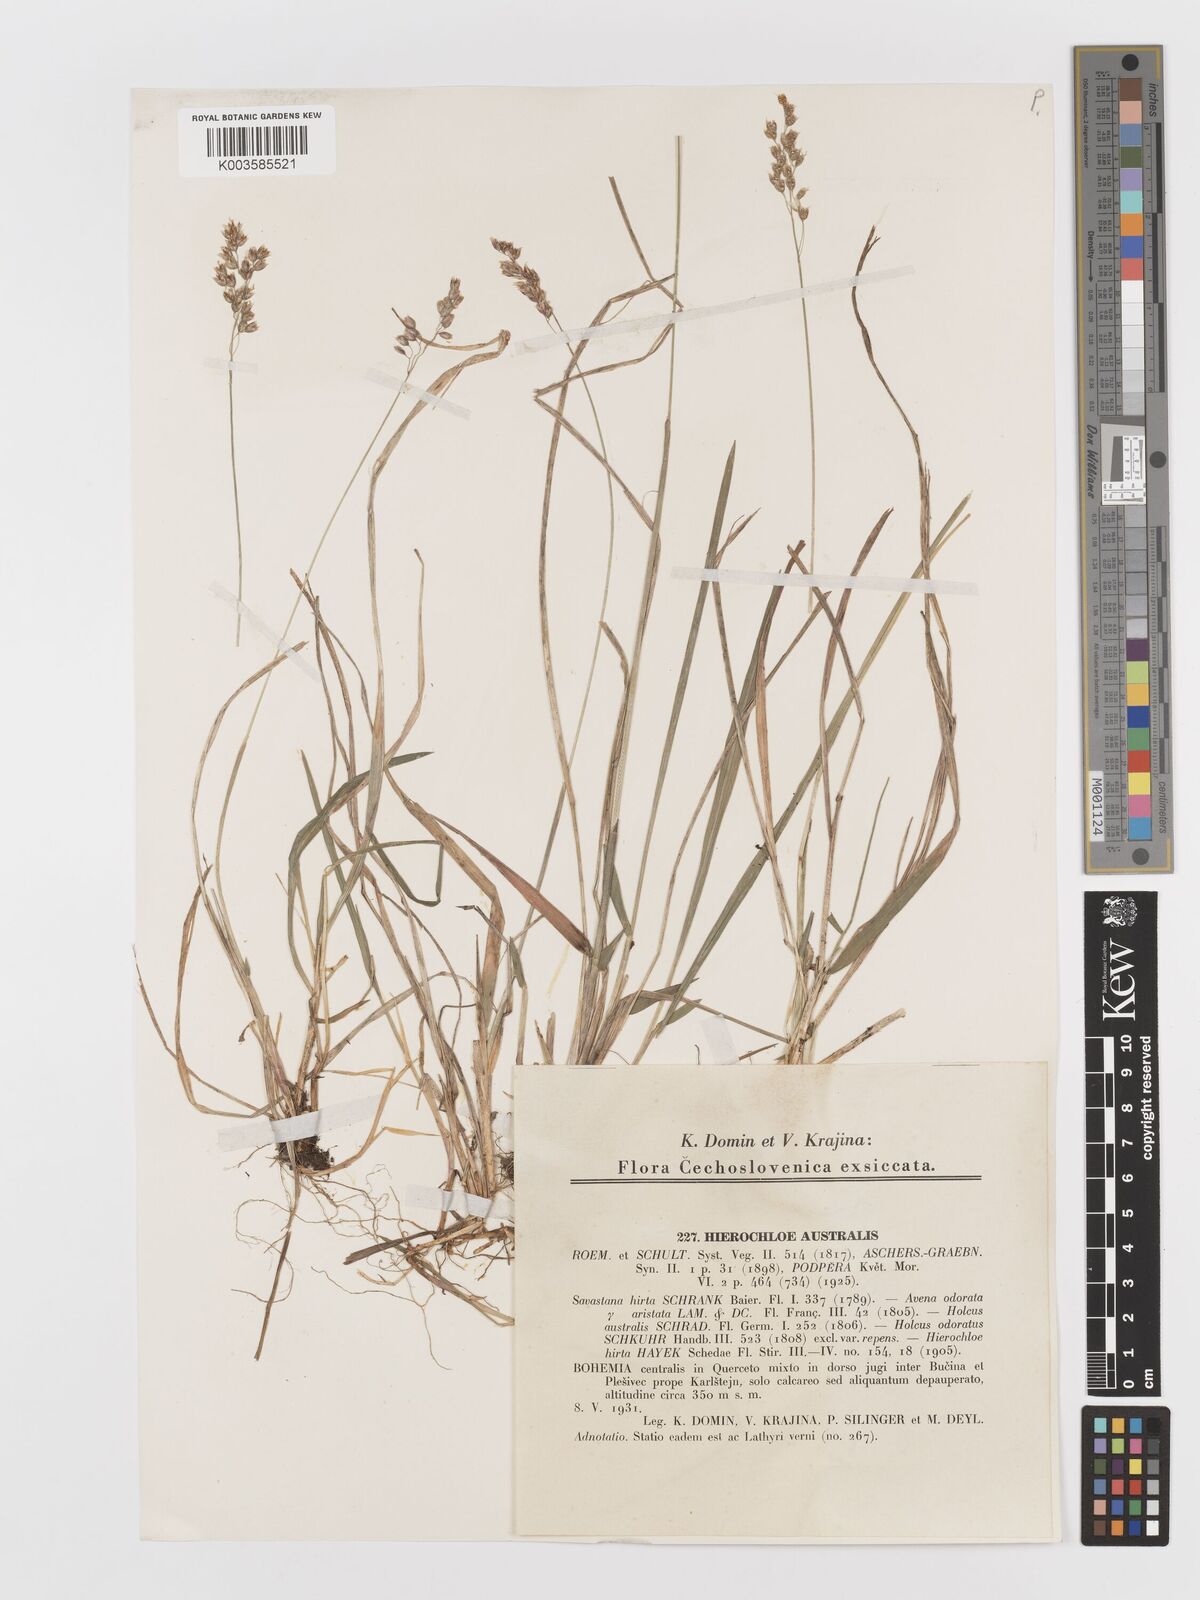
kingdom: Plantae
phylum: Tracheophyta
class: Liliopsida
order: Poales
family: Poaceae
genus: Anthoxanthum
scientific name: Anthoxanthum australe
